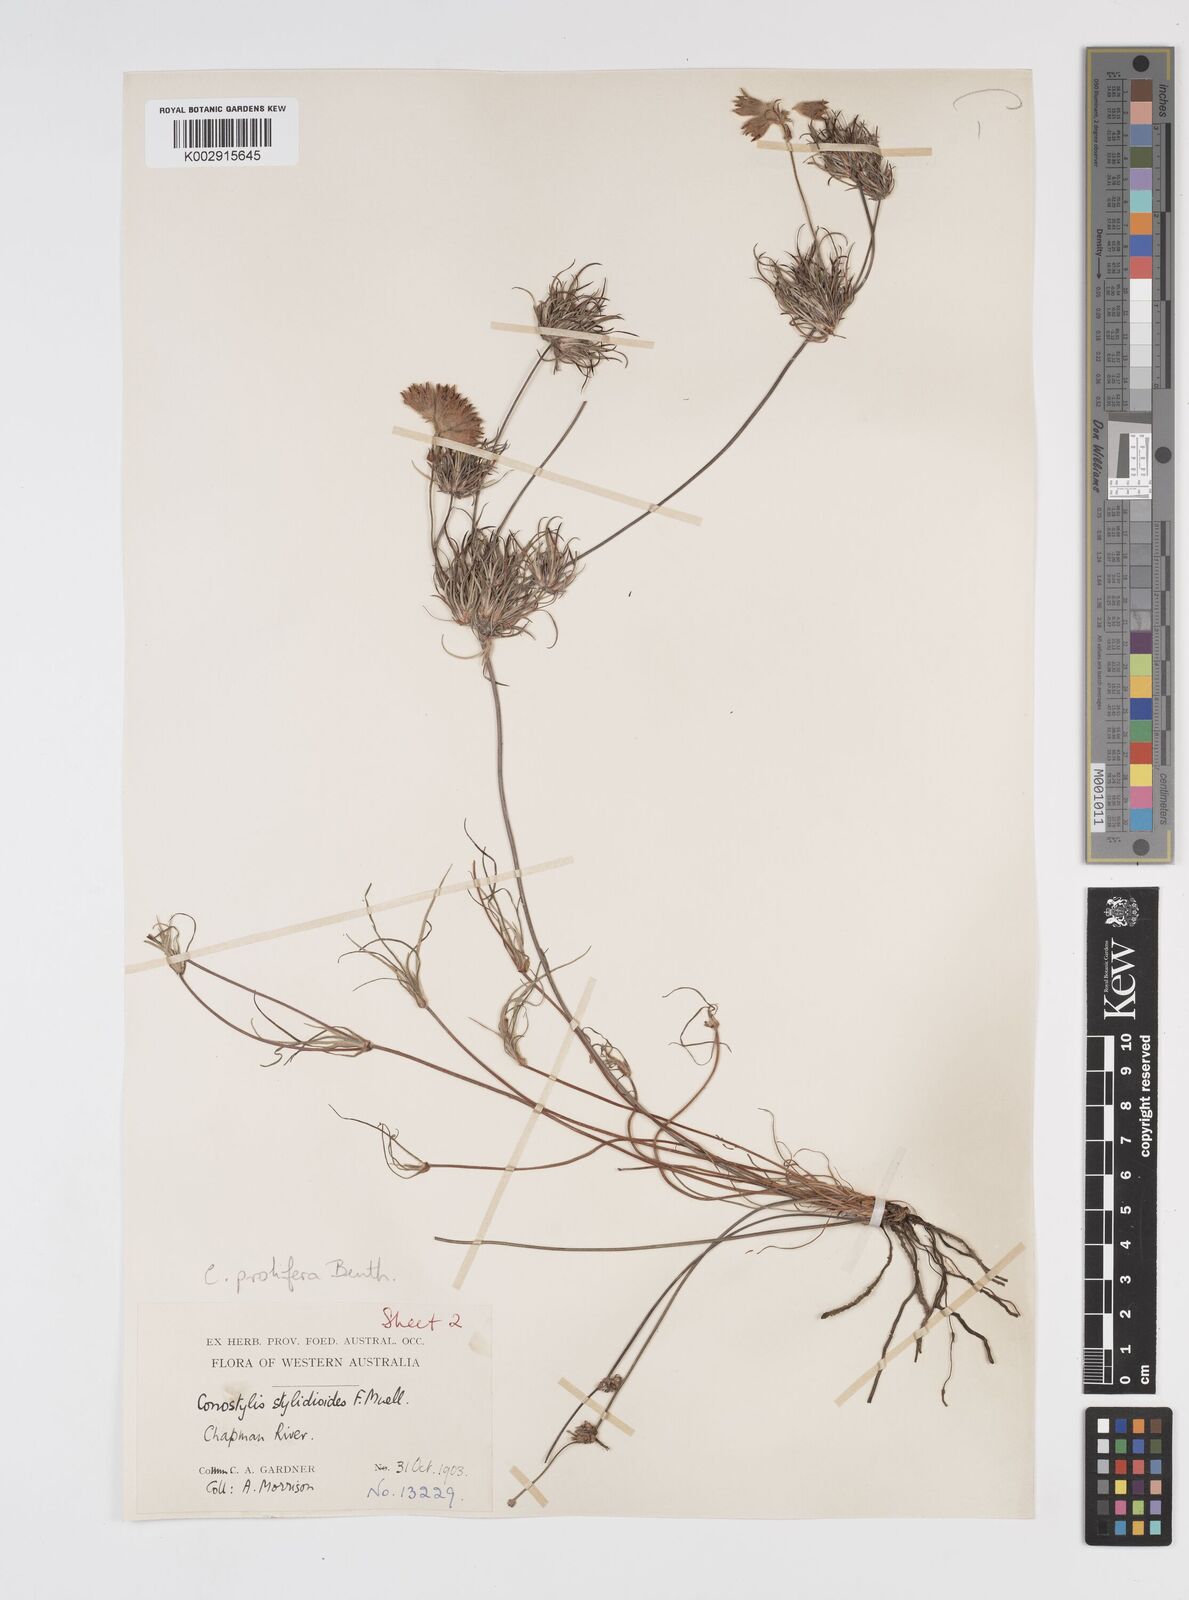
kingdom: Plantae
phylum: Tracheophyta
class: Liliopsida
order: Commelinales
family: Haemodoraceae
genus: Conostylis
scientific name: Conostylis stylidioides
